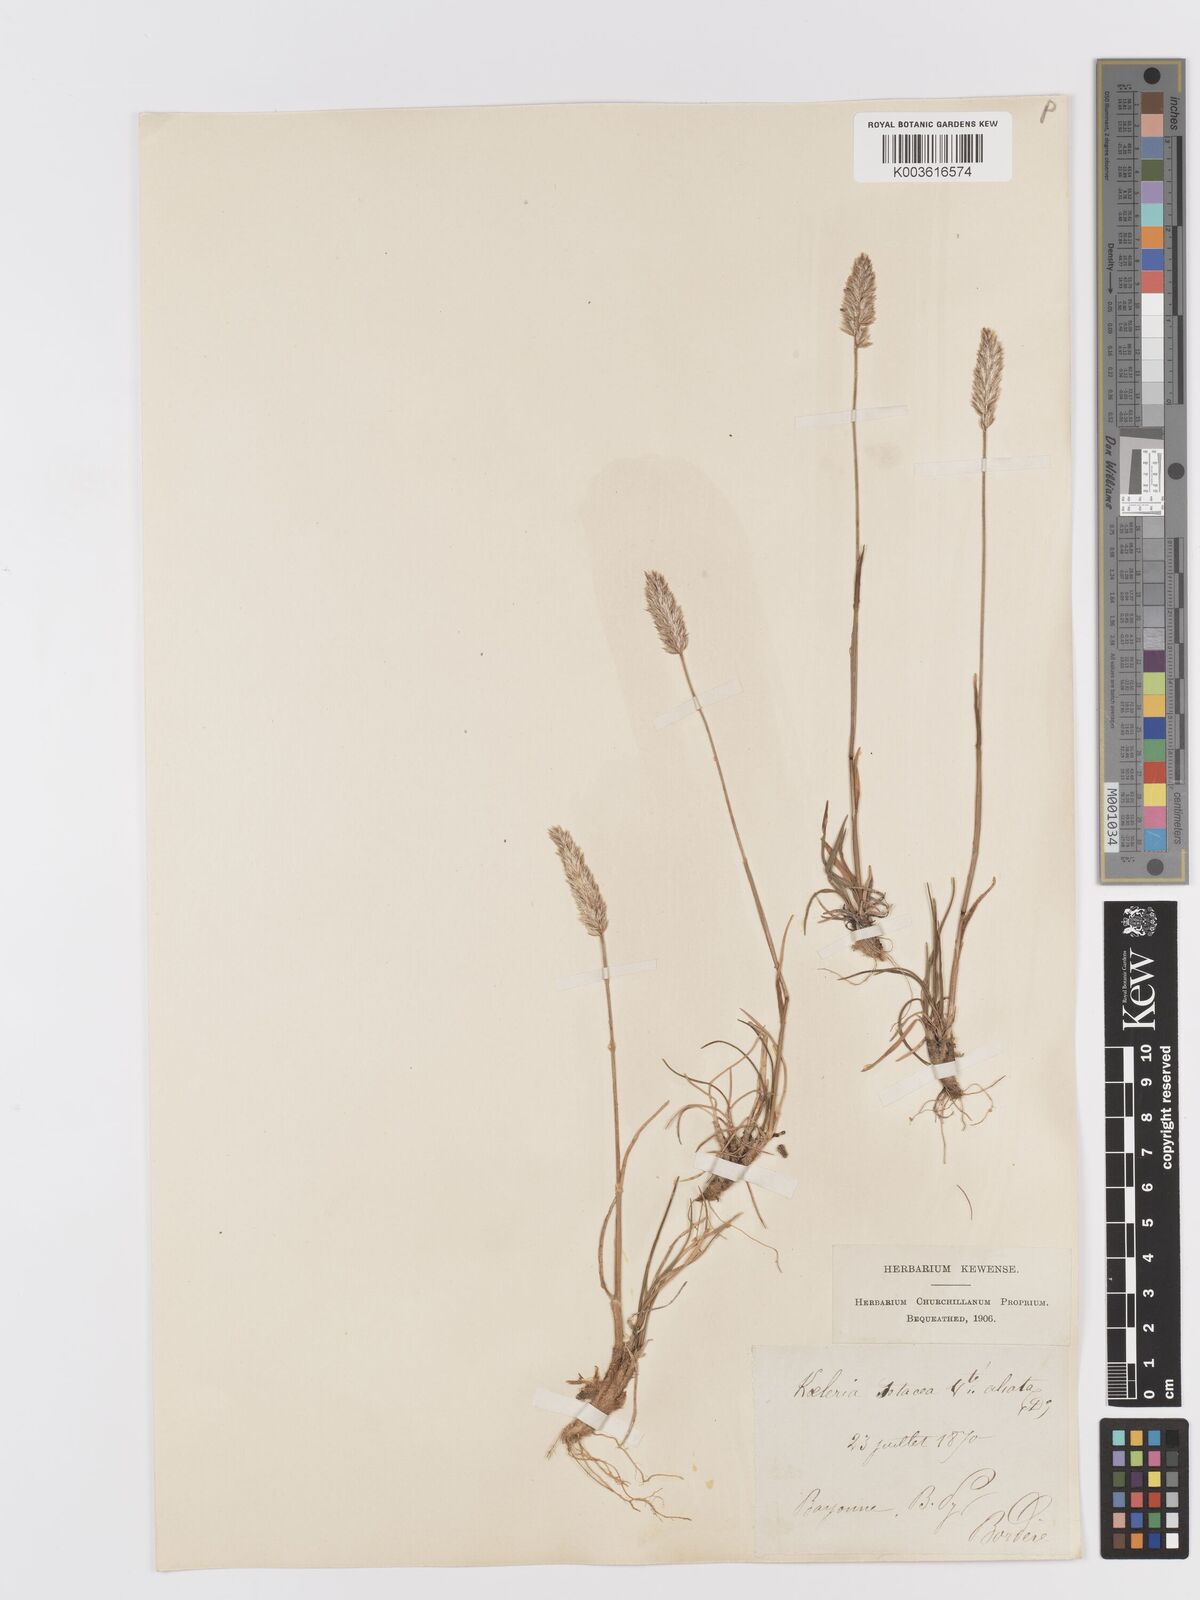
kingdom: Plantae
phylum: Tracheophyta
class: Liliopsida
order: Poales
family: Poaceae
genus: Koeleria
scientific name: Koeleria vallesiana
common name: Somerset hair-grass
